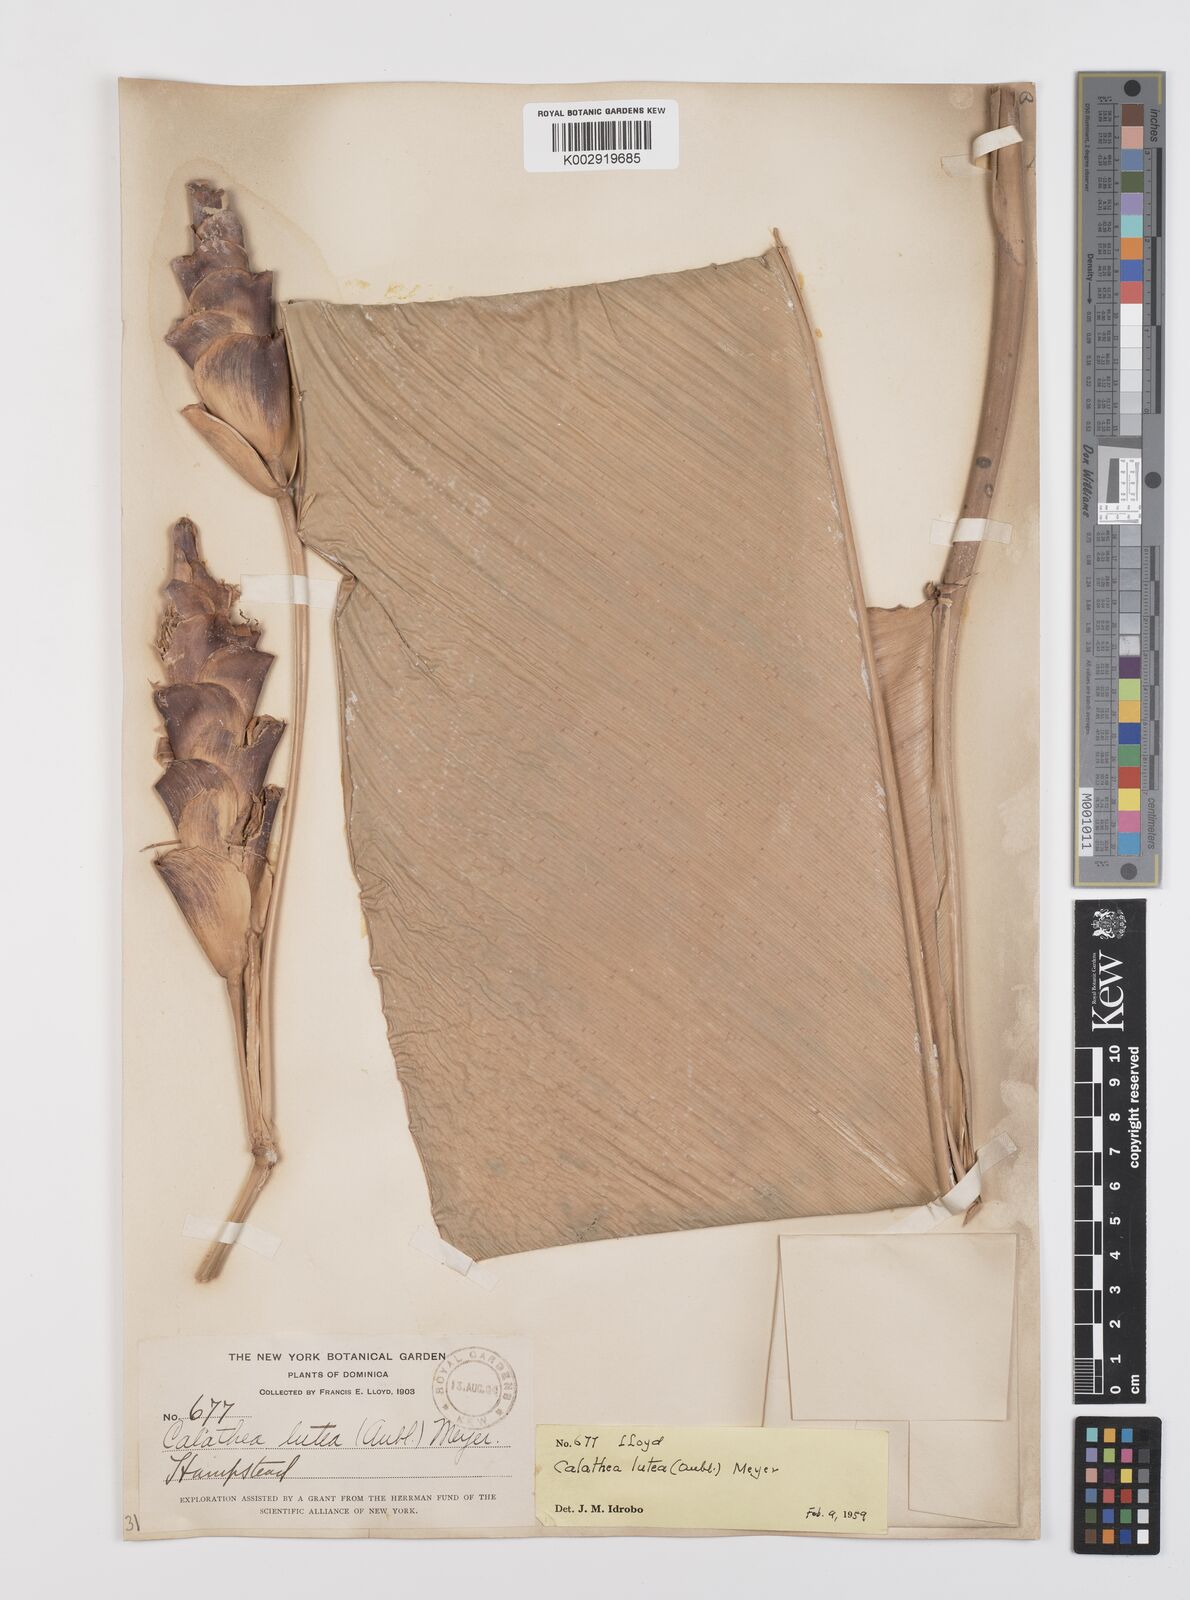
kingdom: Plantae
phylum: Tracheophyta
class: Liliopsida
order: Zingiberales
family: Marantaceae
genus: Calathea
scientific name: Calathea lutea
